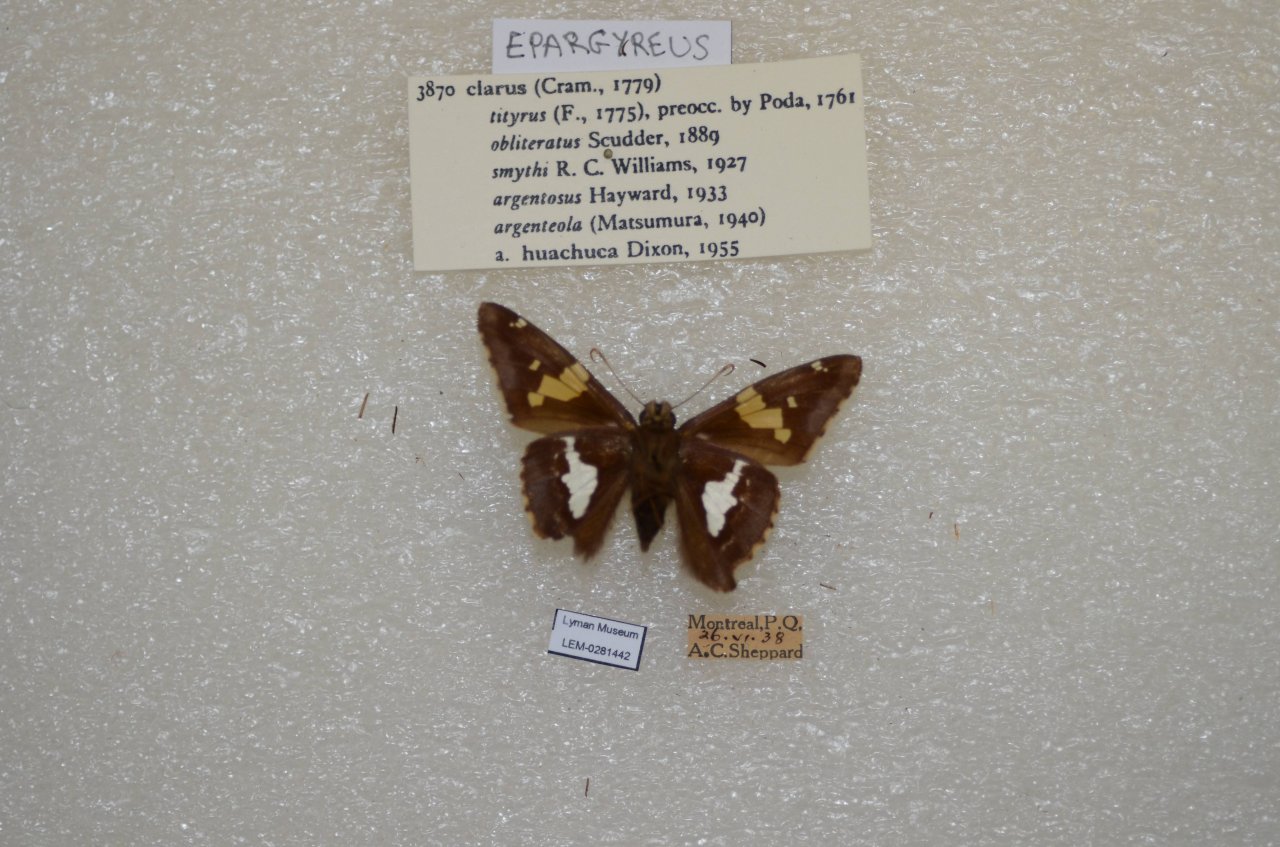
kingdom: Animalia
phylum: Arthropoda
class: Insecta
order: Lepidoptera
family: Hesperiidae
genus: Epargyreus
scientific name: Epargyreus clarus
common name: Silver-spotted Skipper
